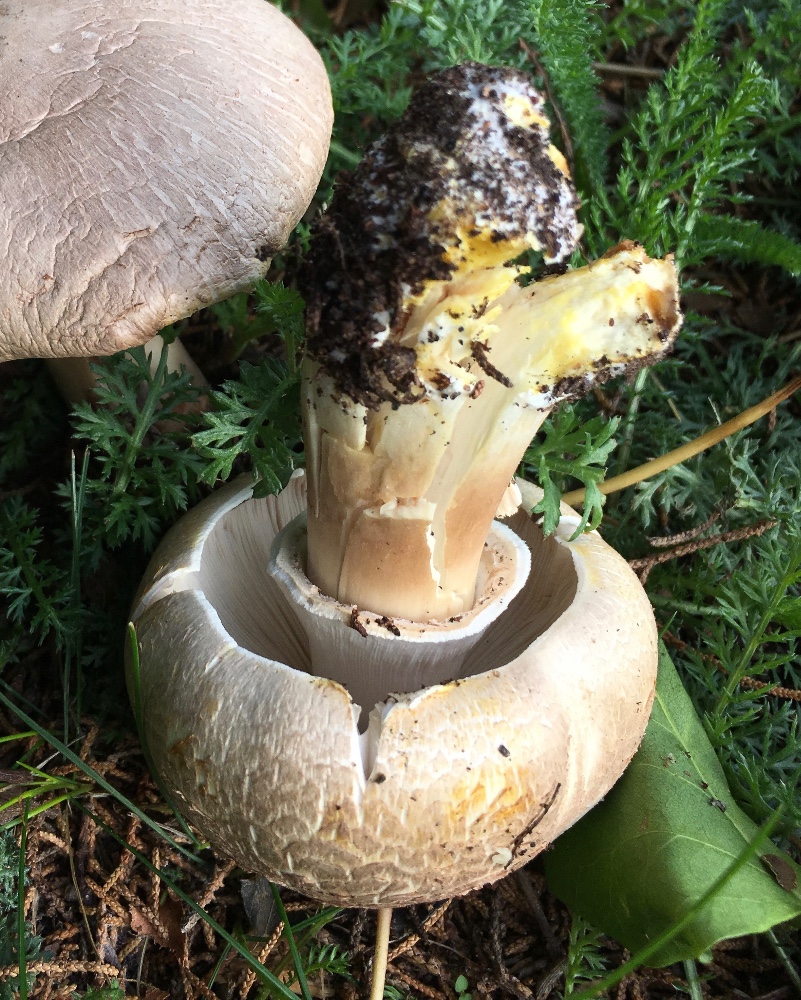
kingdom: Fungi
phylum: Basidiomycota
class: Agaricomycetes
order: Agaricales
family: Agaricaceae
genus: Agaricus
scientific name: Agaricus xanthodermus
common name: karbol-champignon
